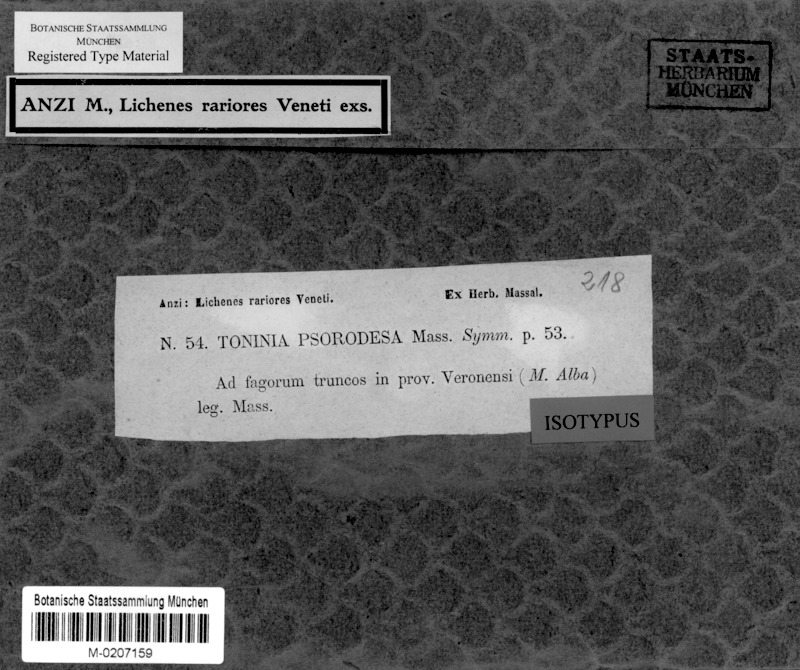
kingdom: Fungi
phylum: Ascomycota
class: Lecanoromycetes
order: Lecanorales
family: Ramalinaceae
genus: Toninia
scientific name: Toninia
